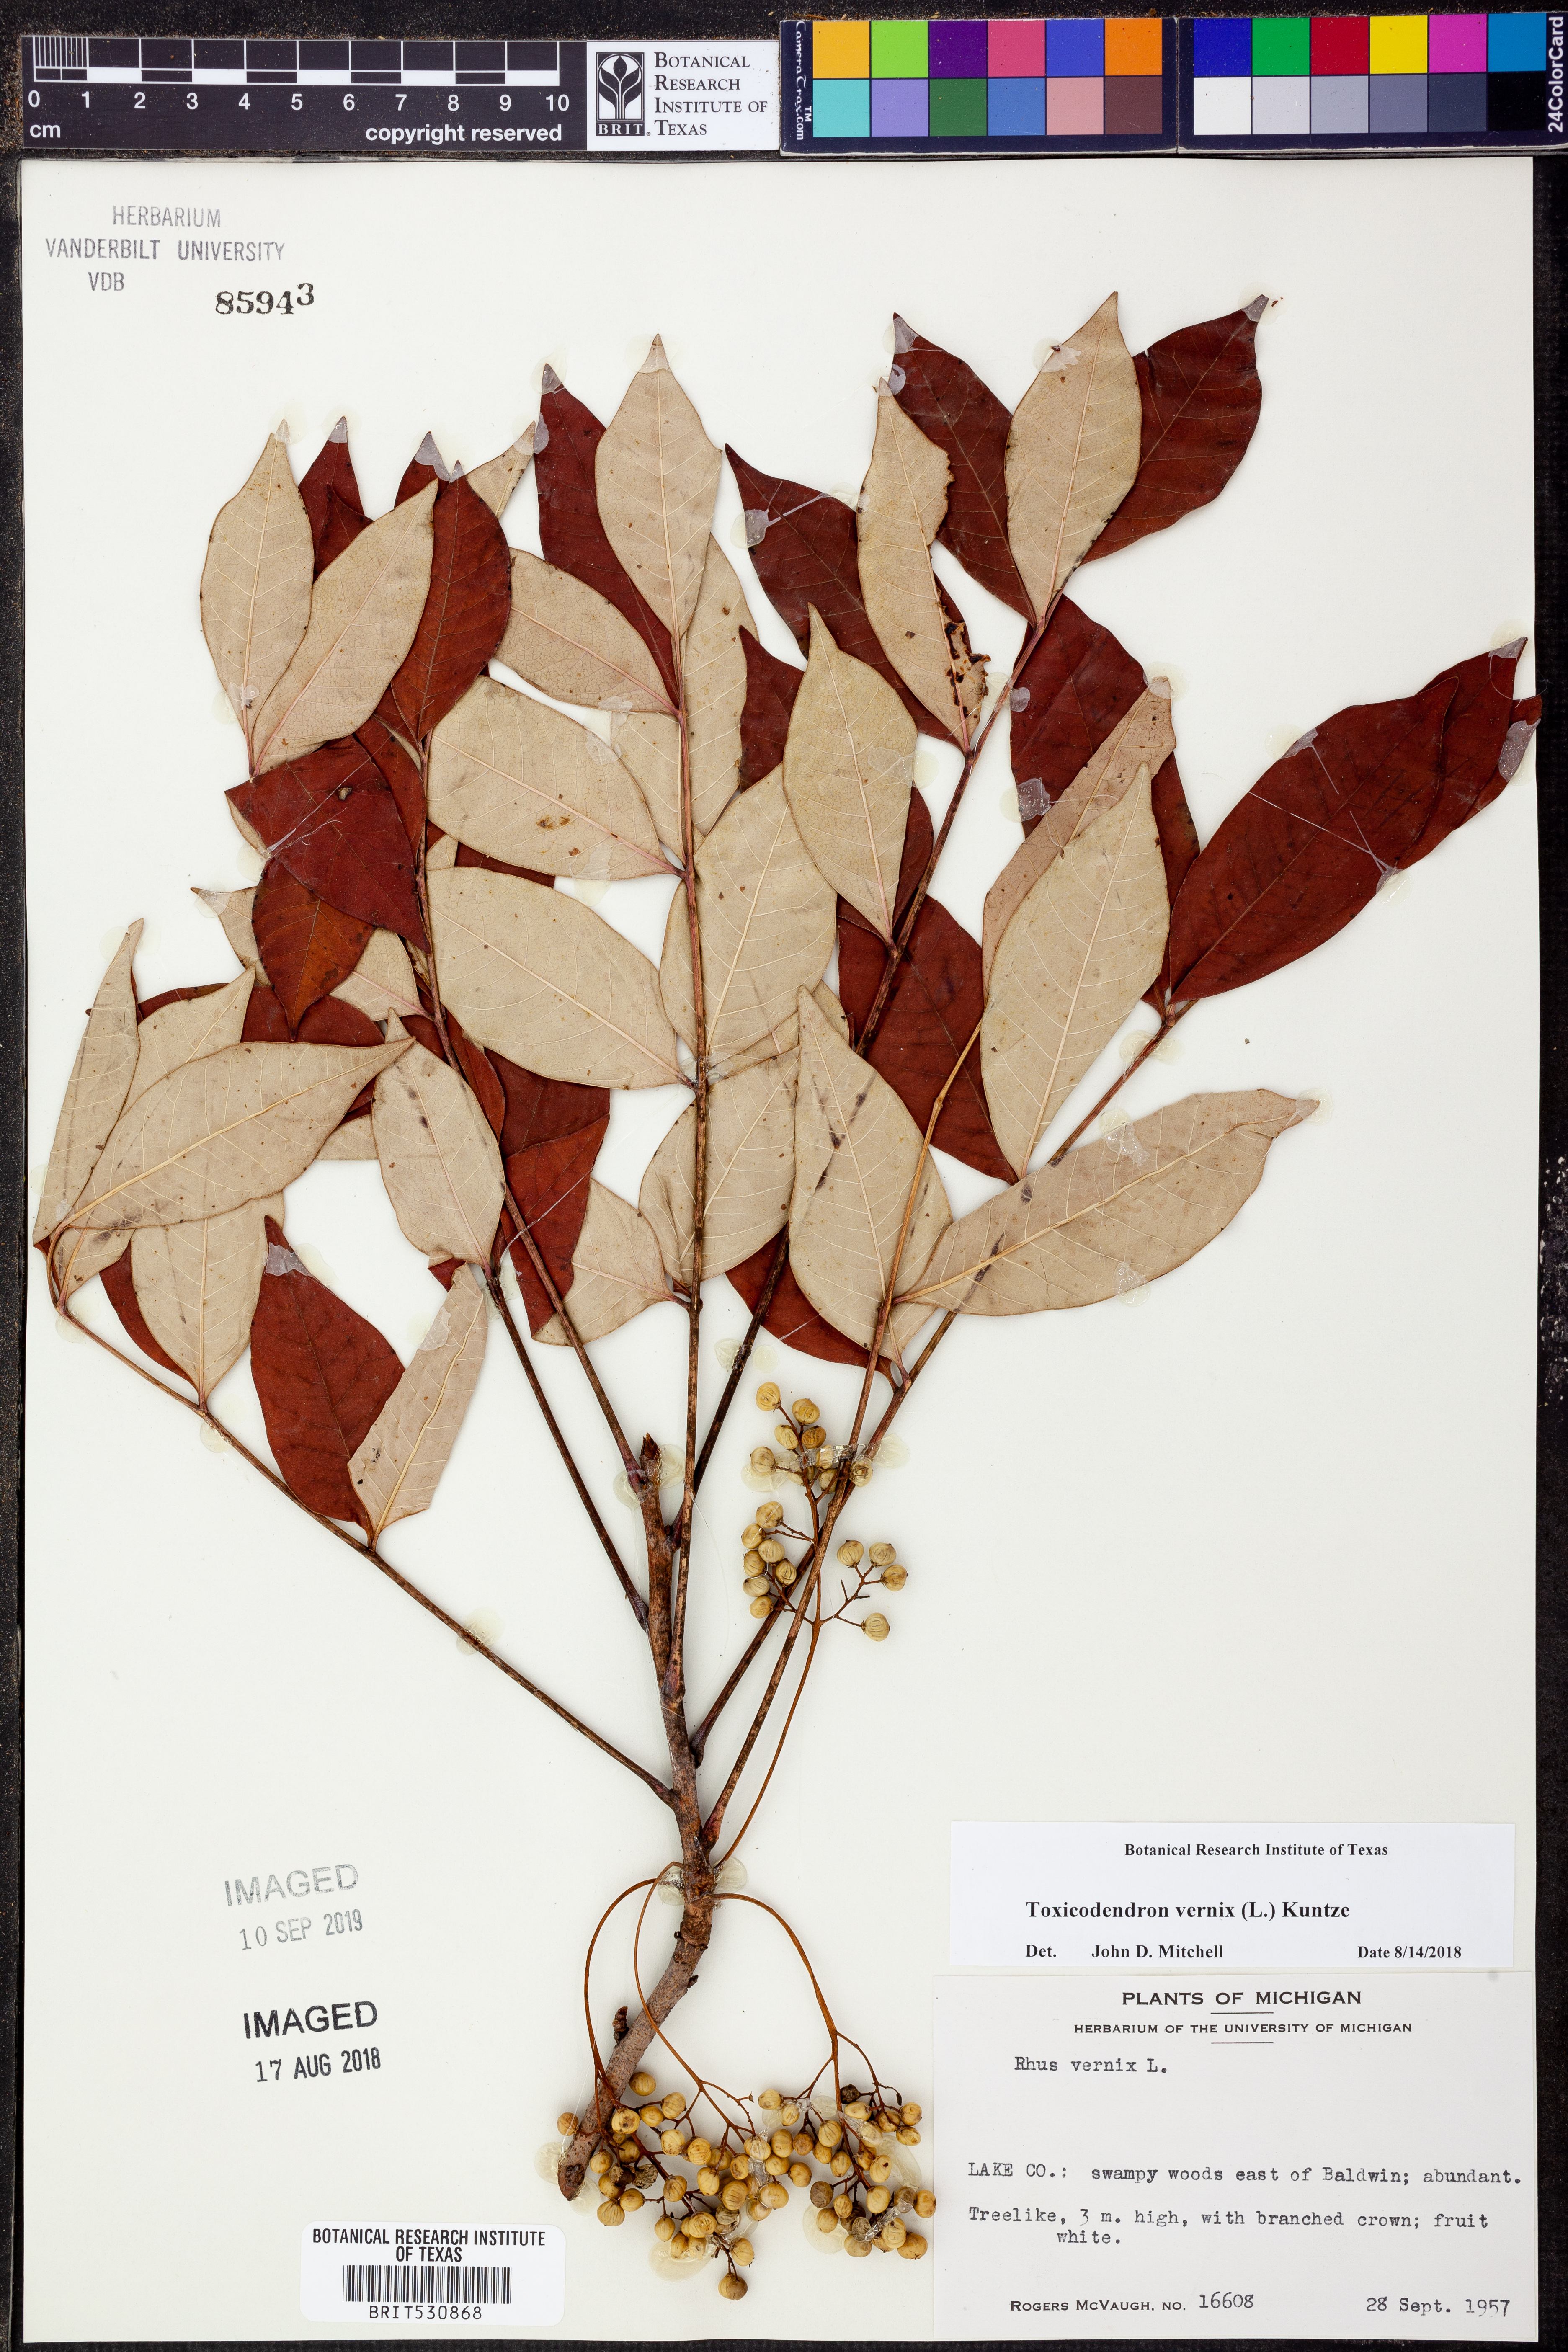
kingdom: Plantae
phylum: Tracheophyta
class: Magnoliopsida
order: Sapindales
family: Anacardiaceae
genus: Toxicodendron
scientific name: Toxicodendron vernix
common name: Poison sumac
